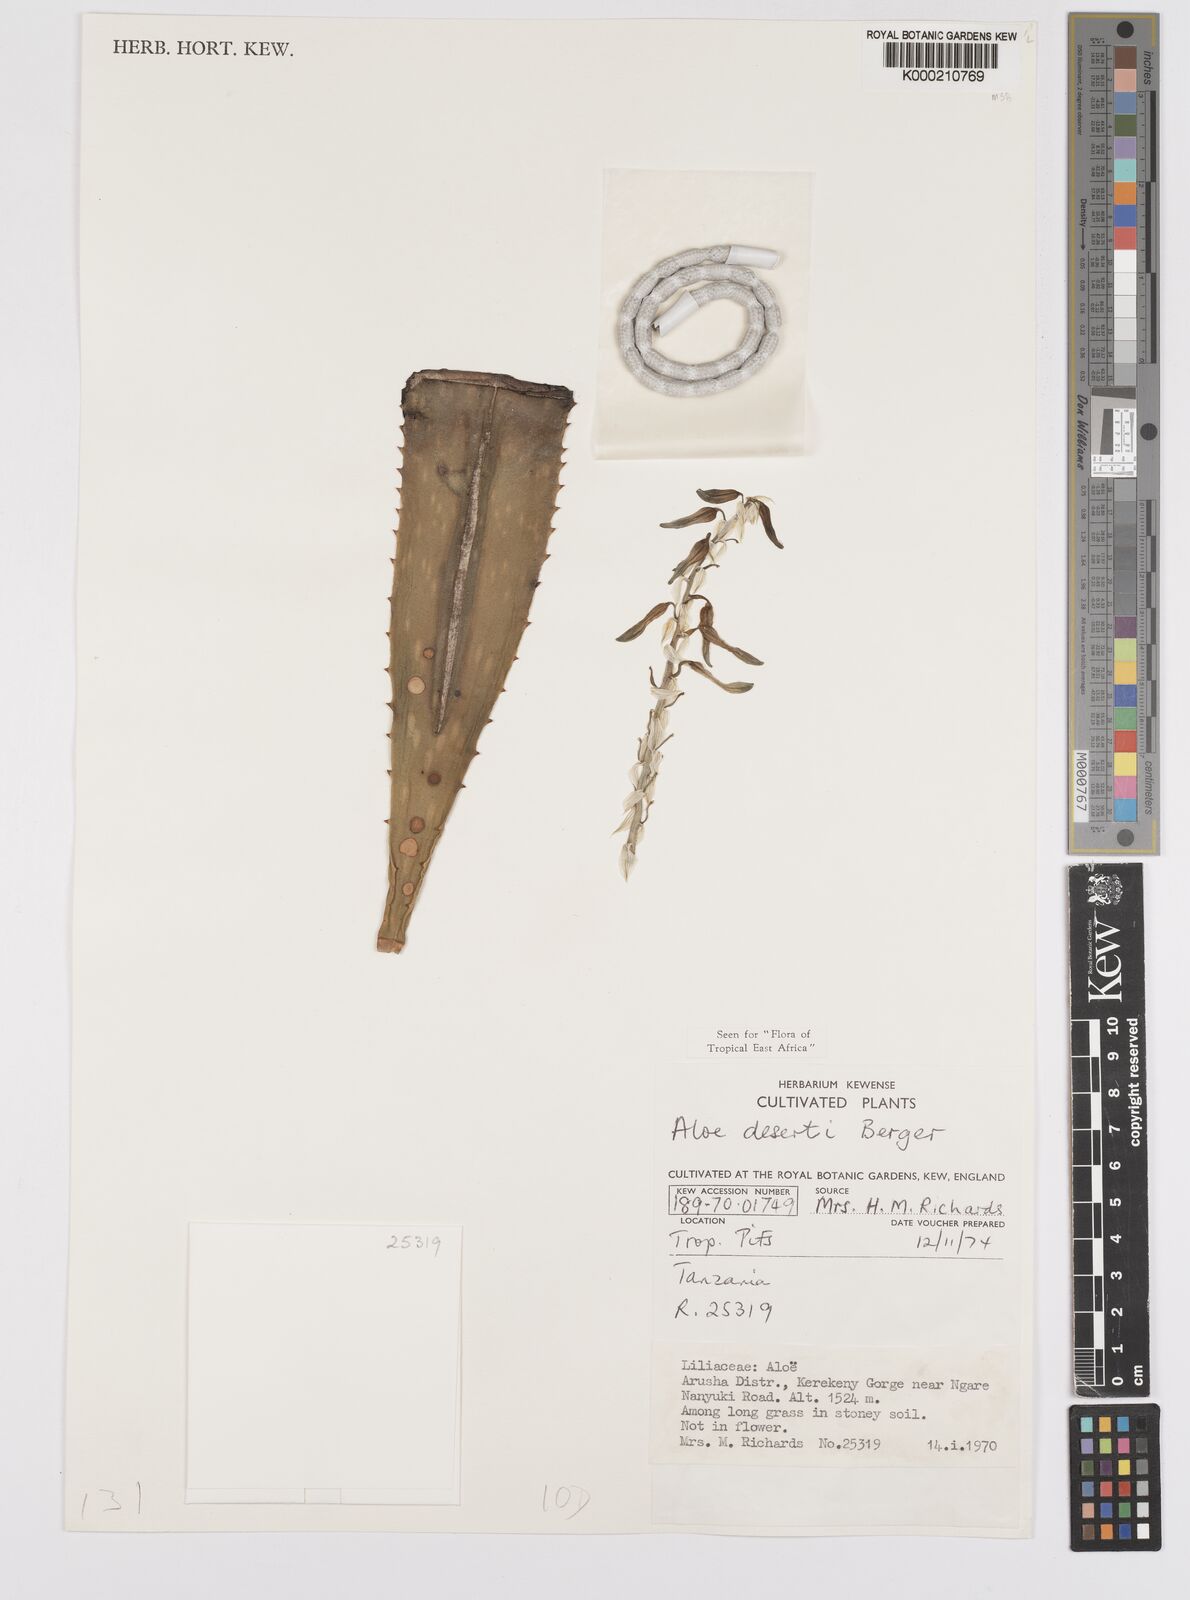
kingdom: Plantae
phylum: Tracheophyta
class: Liliopsida
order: Asparagales
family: Asphodelaceae
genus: Aloe
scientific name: Aloe deserti
